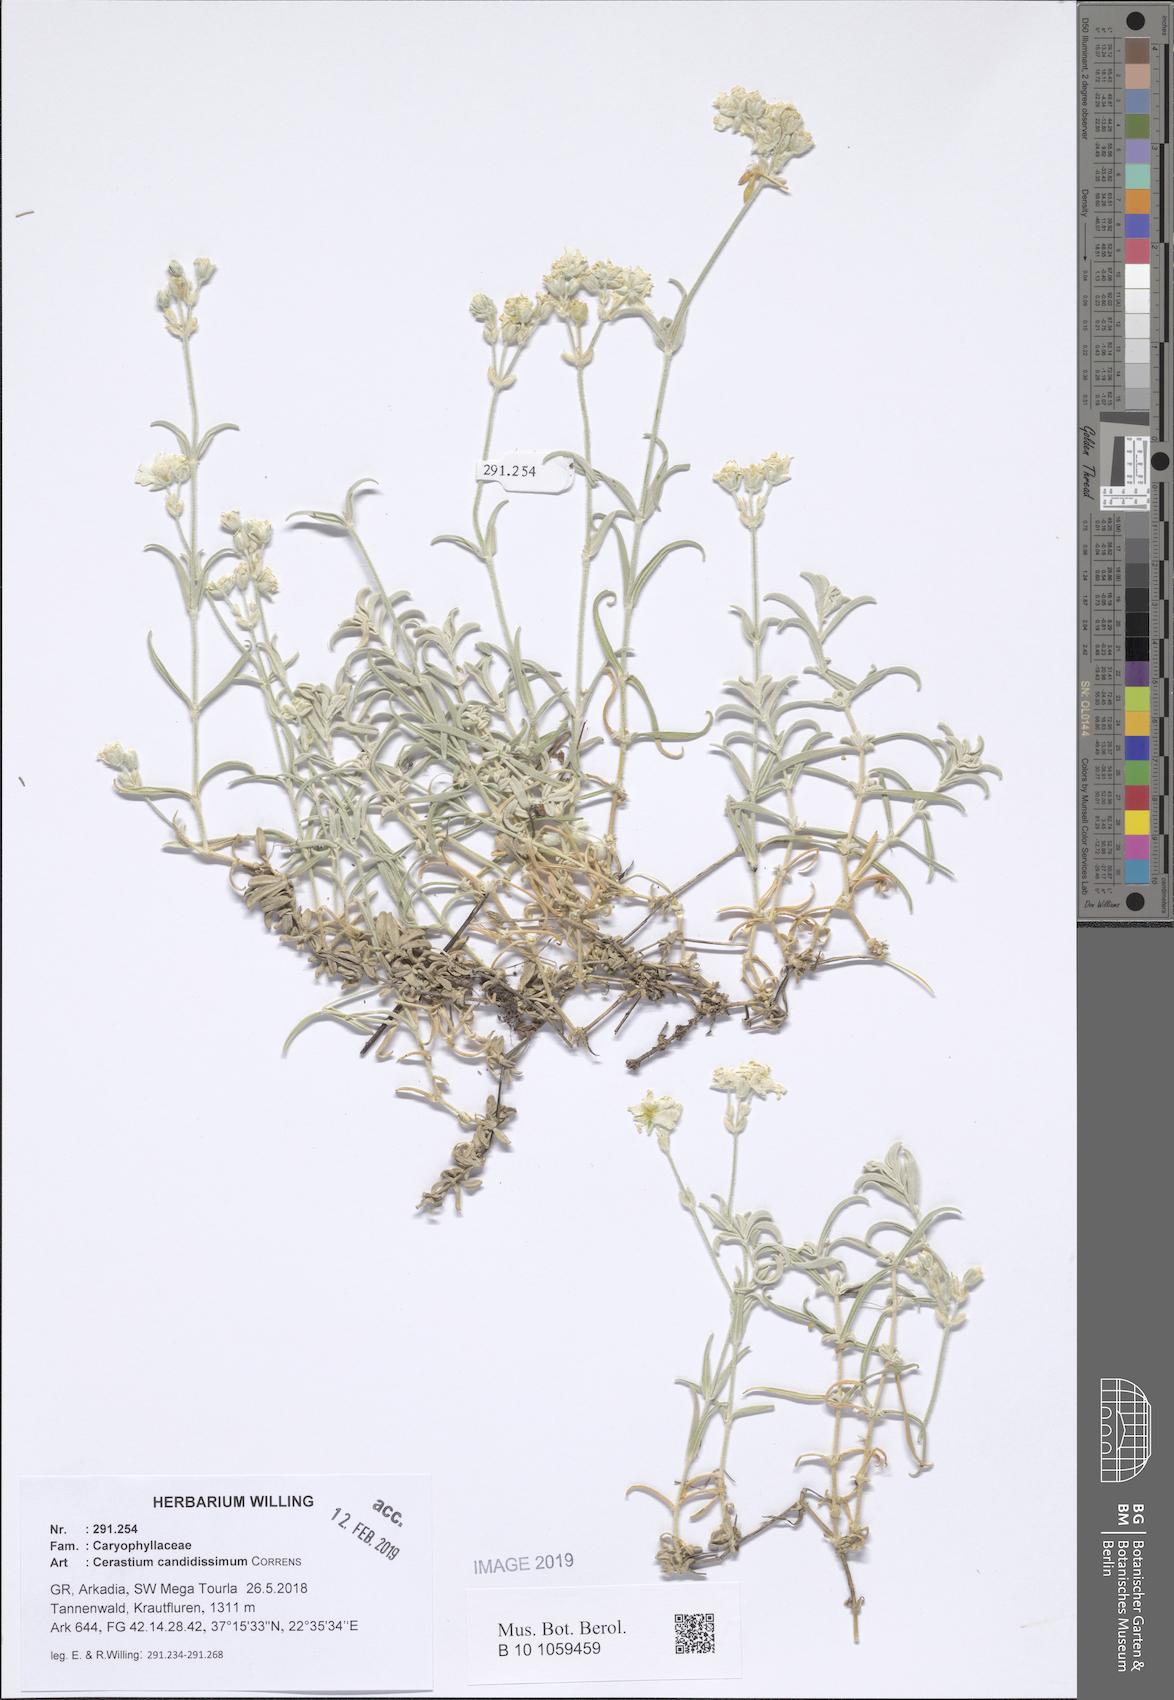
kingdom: Plantae
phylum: Tracheophyta
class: Magnoliopsida
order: Caryophyllales
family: Caryophyllaceae
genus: Cerastium
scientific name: Cerastium candidissimum
